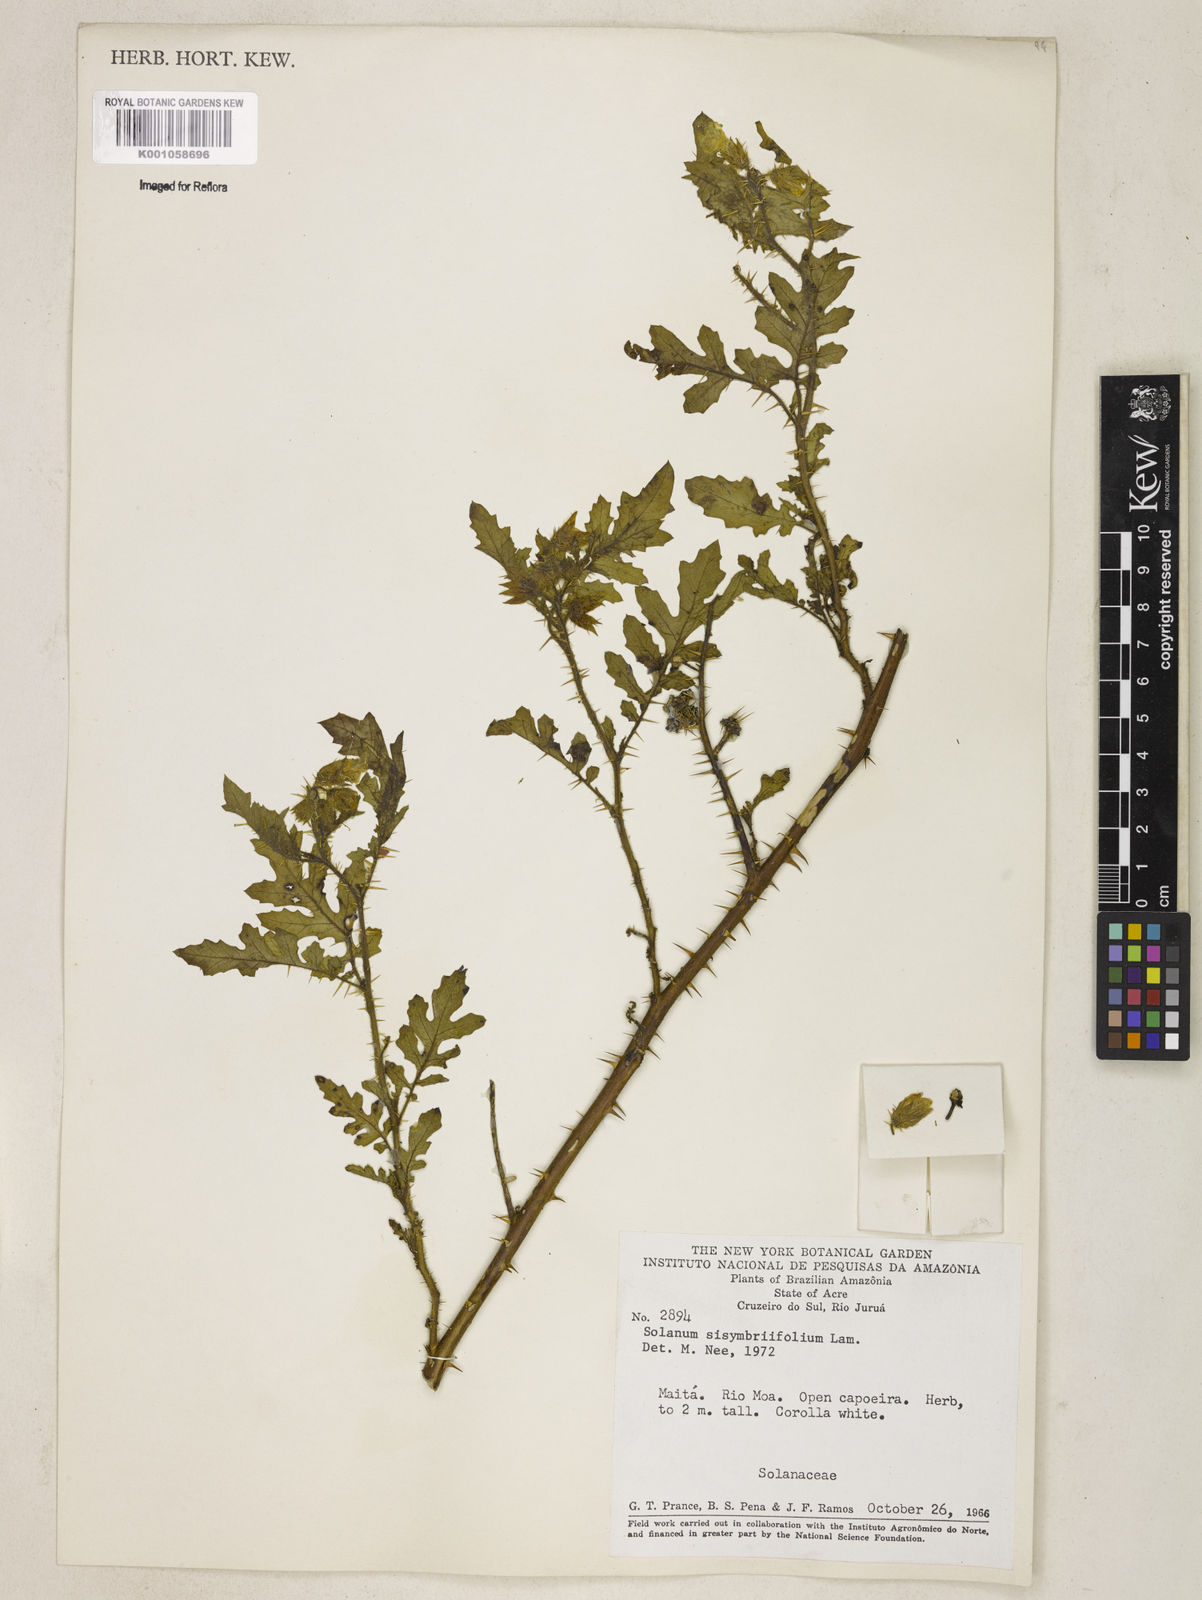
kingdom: Plantae
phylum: Tracheophyta
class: Magnoliopsida
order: Solanales
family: Solanaceae
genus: Solanum
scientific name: Solanum sisymbriifolium
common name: Red buffalo-bur
